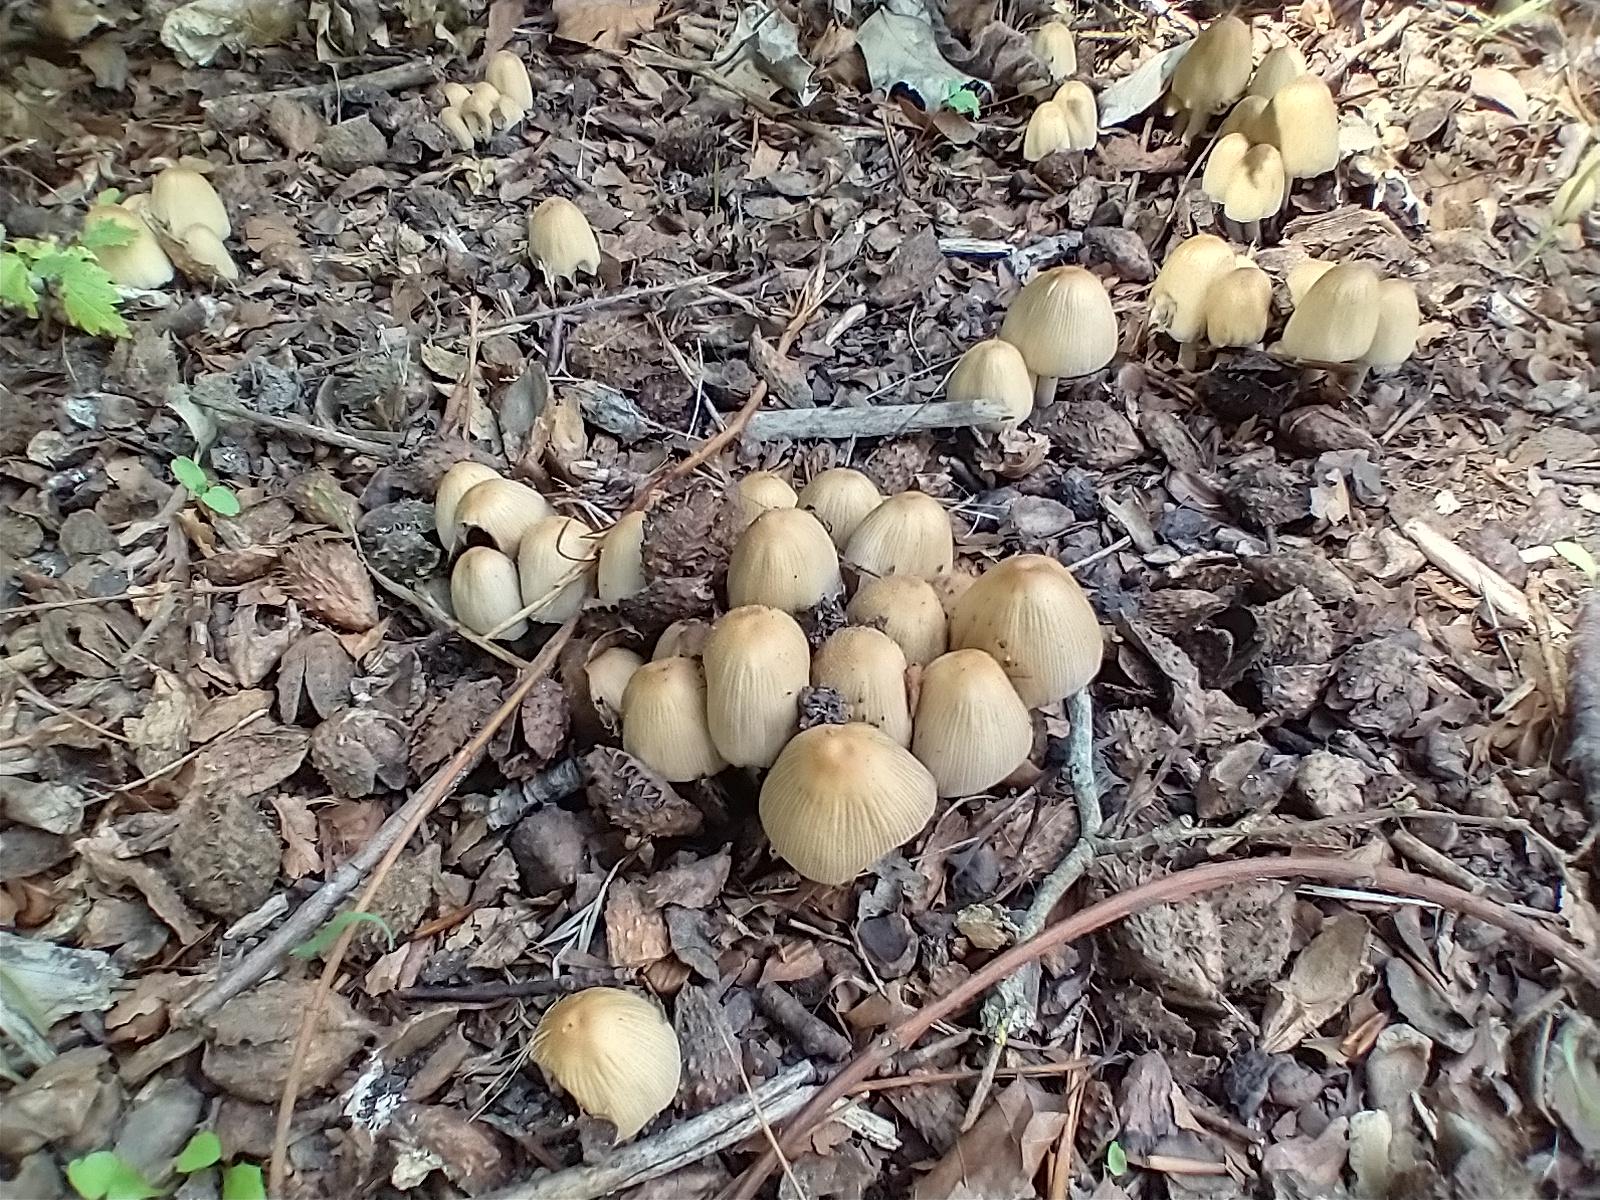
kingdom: Fungi
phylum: Basidiomycota
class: Agaricomycetes
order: Agaricales
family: Psathyrellaceae
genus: Coprinellus
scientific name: Coprinellus micaceus
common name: glimmer-blækhat
